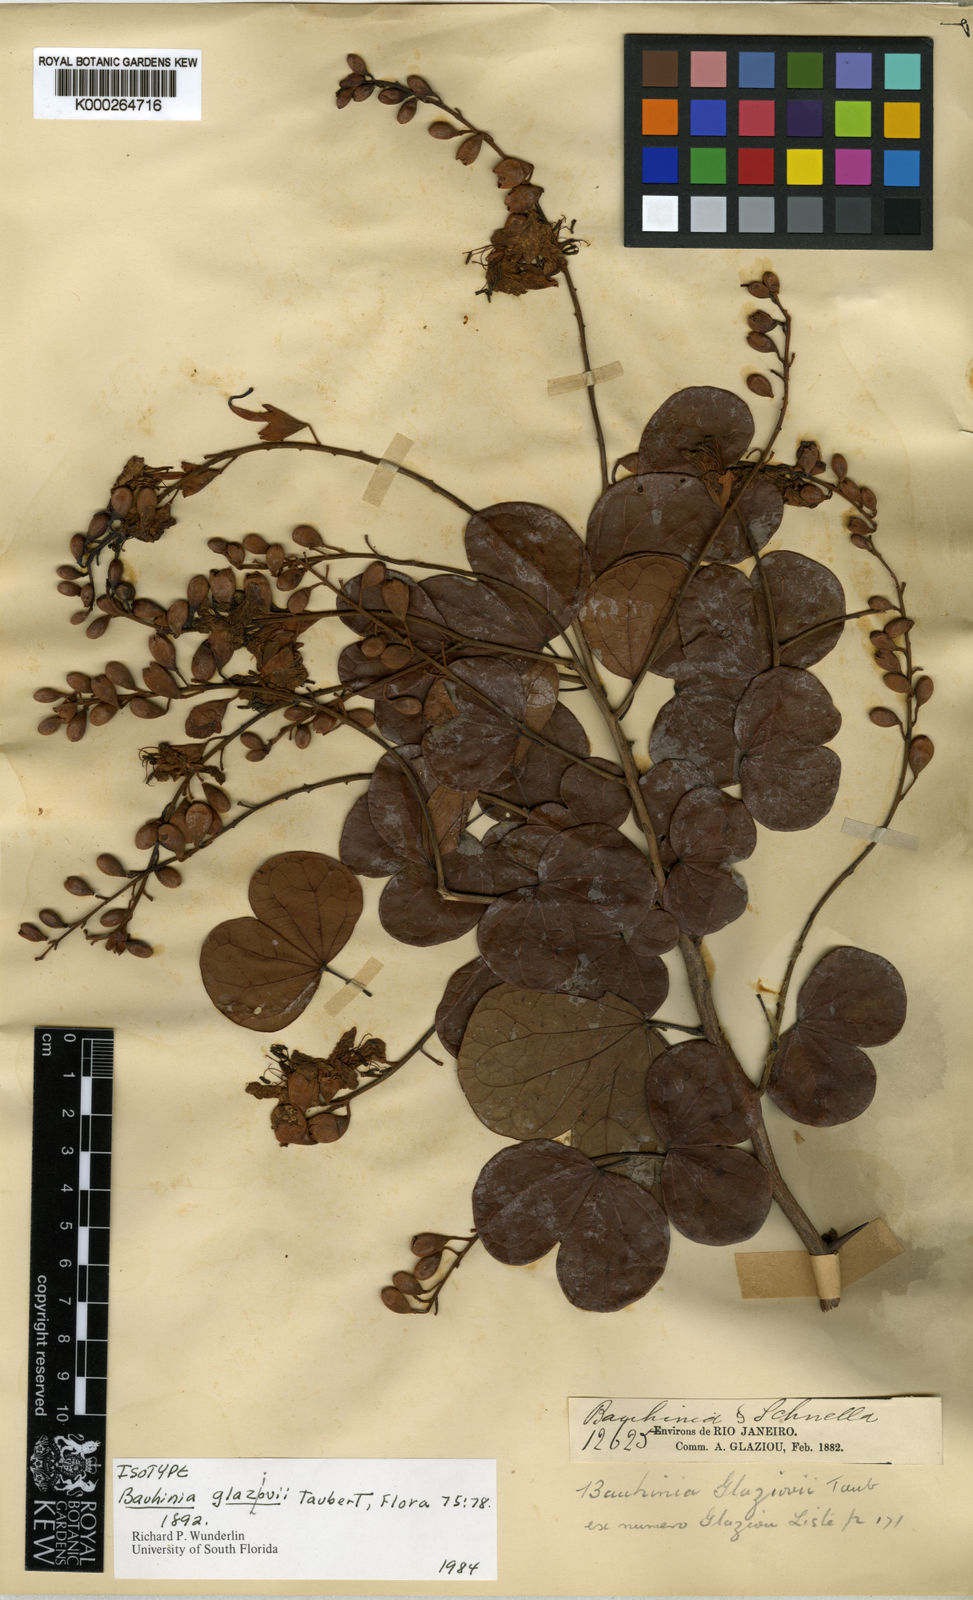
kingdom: Plantae
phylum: Tracheophyta
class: Magnoliopsida
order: Fabales
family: Fabaceae
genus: Bauhinia
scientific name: Bauhinia glaziovii
